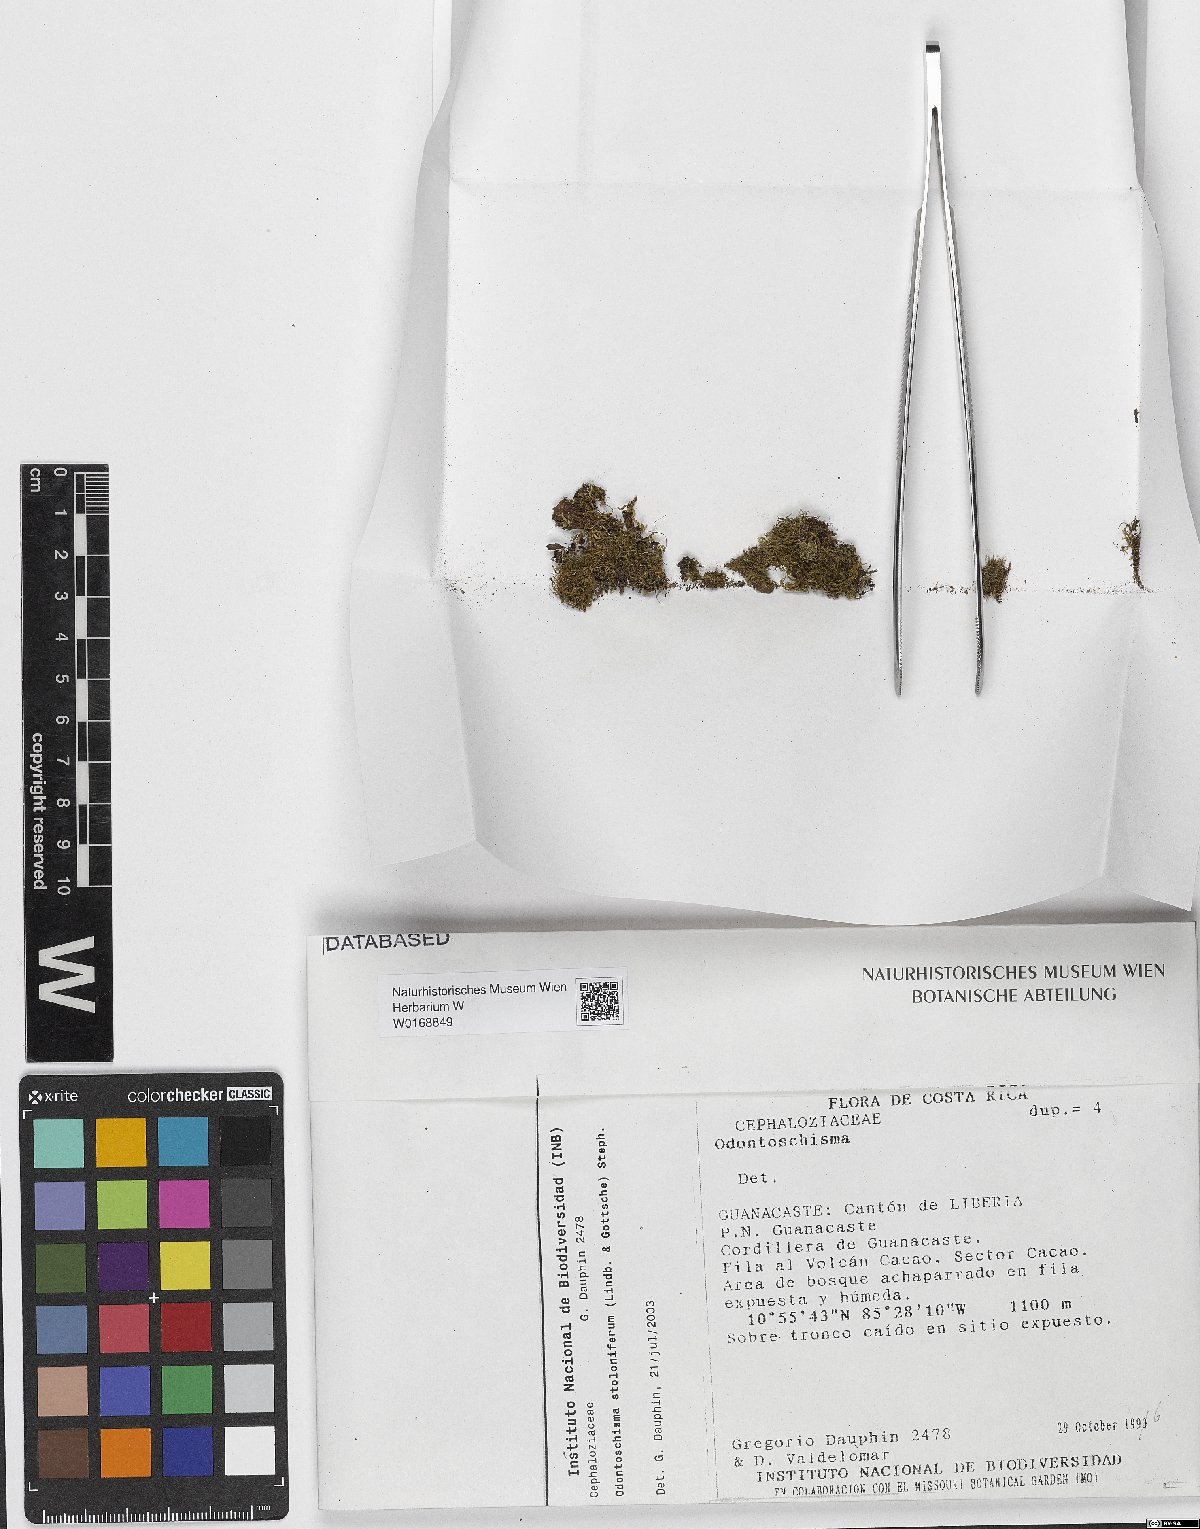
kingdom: Plantae
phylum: Marchantiophyta
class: Jungermanniopsida
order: Jungermanniales
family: Cephaloziaceae
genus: Odontoschisma
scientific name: Odontoschisma sphagni
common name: Bog-moss flapwort
